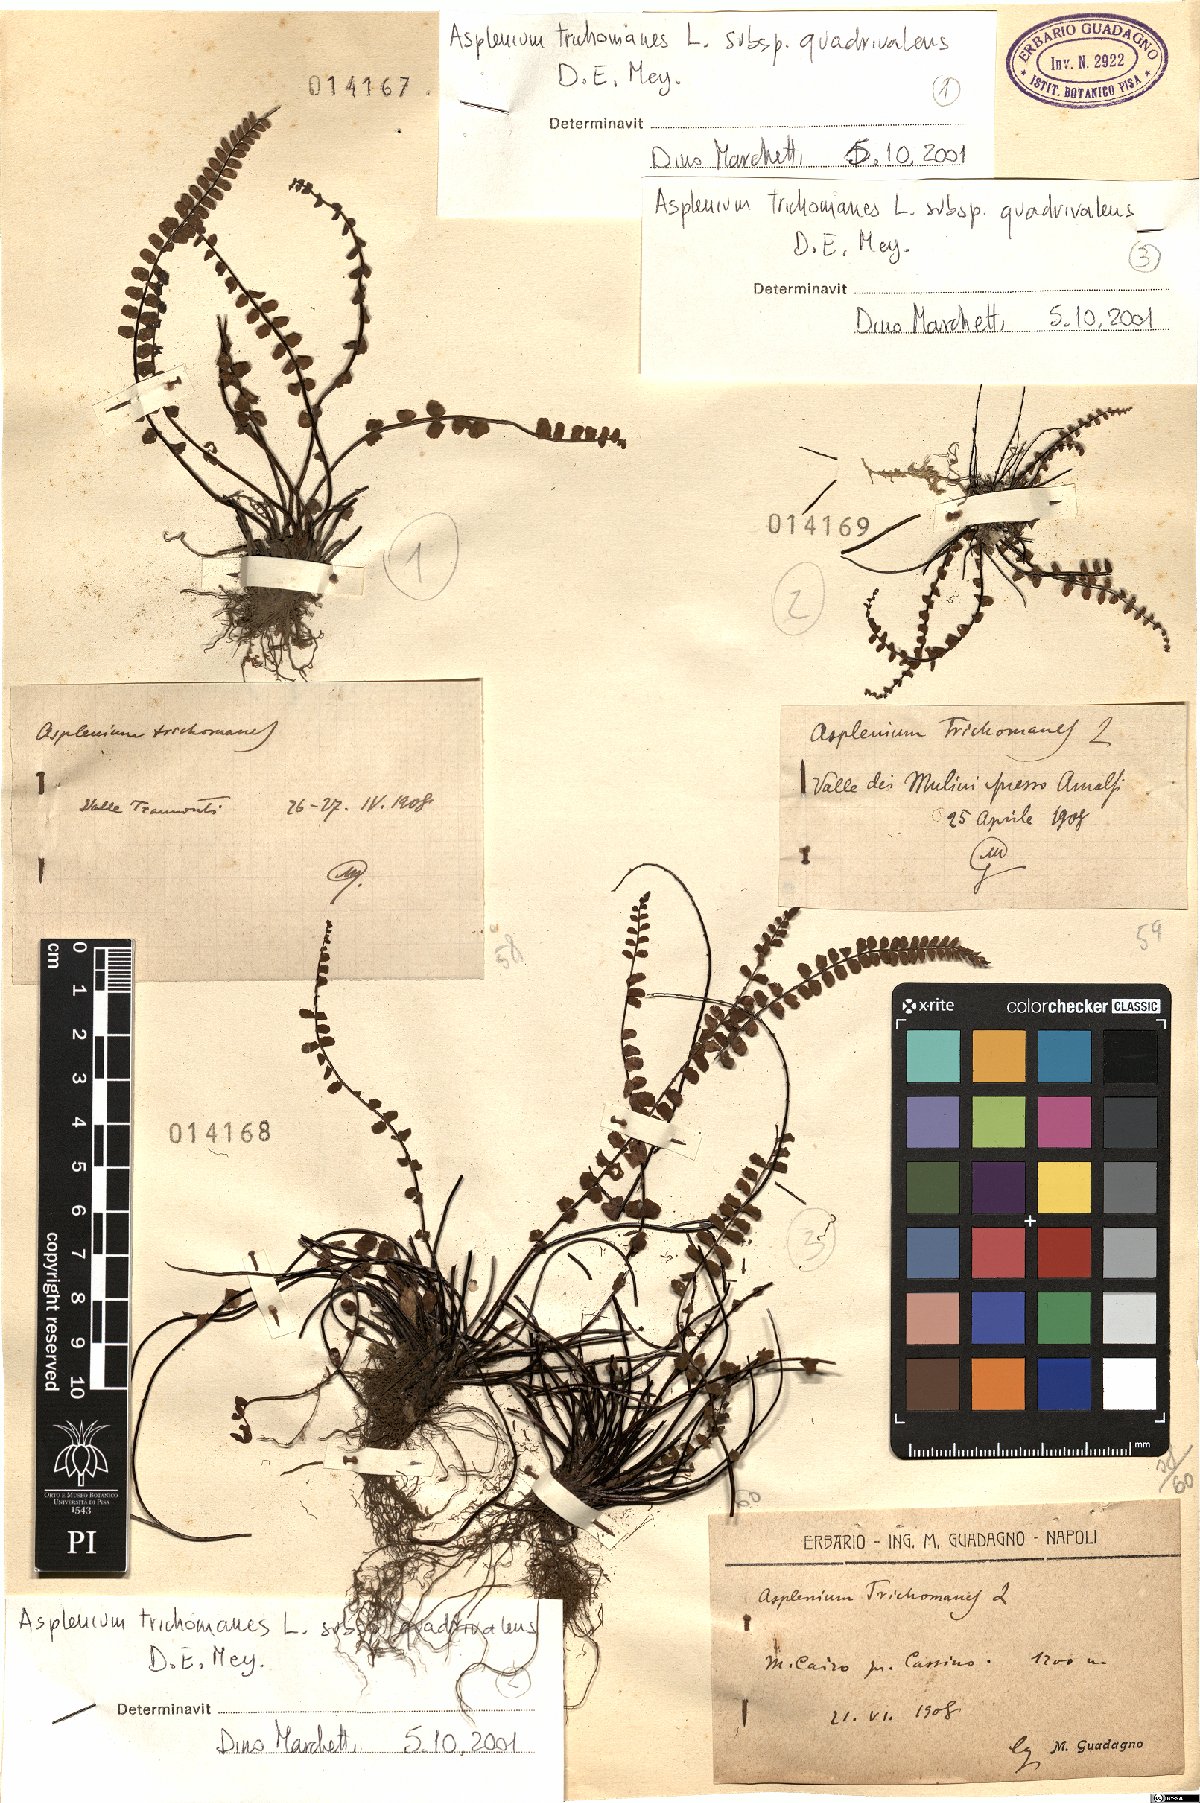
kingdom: Plantae
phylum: Tracheophyta
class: Polypodiopsida
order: Polypodiales
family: Aspleniaceae
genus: Asplenium
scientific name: Asplenium quadrivalens
